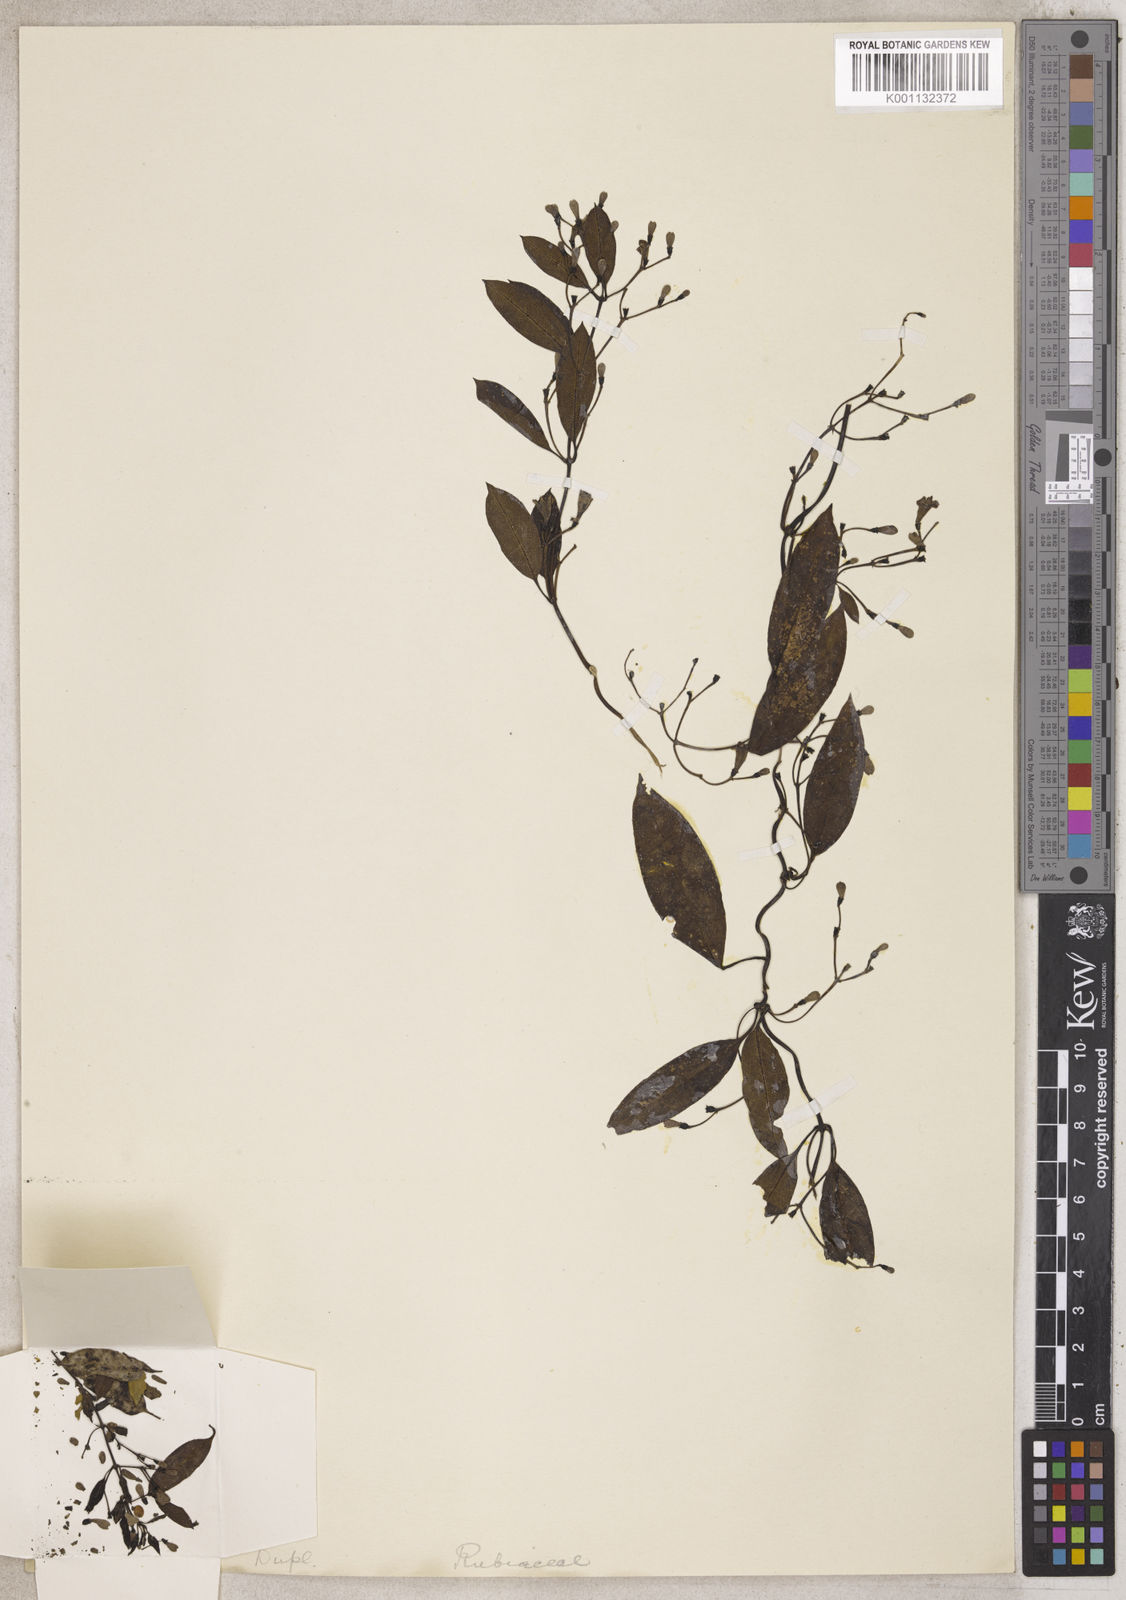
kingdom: Plantae
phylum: Tracheophyta
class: Magnoliopsida
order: Gentianales
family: Rubiaceae
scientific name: Rubiaceae
